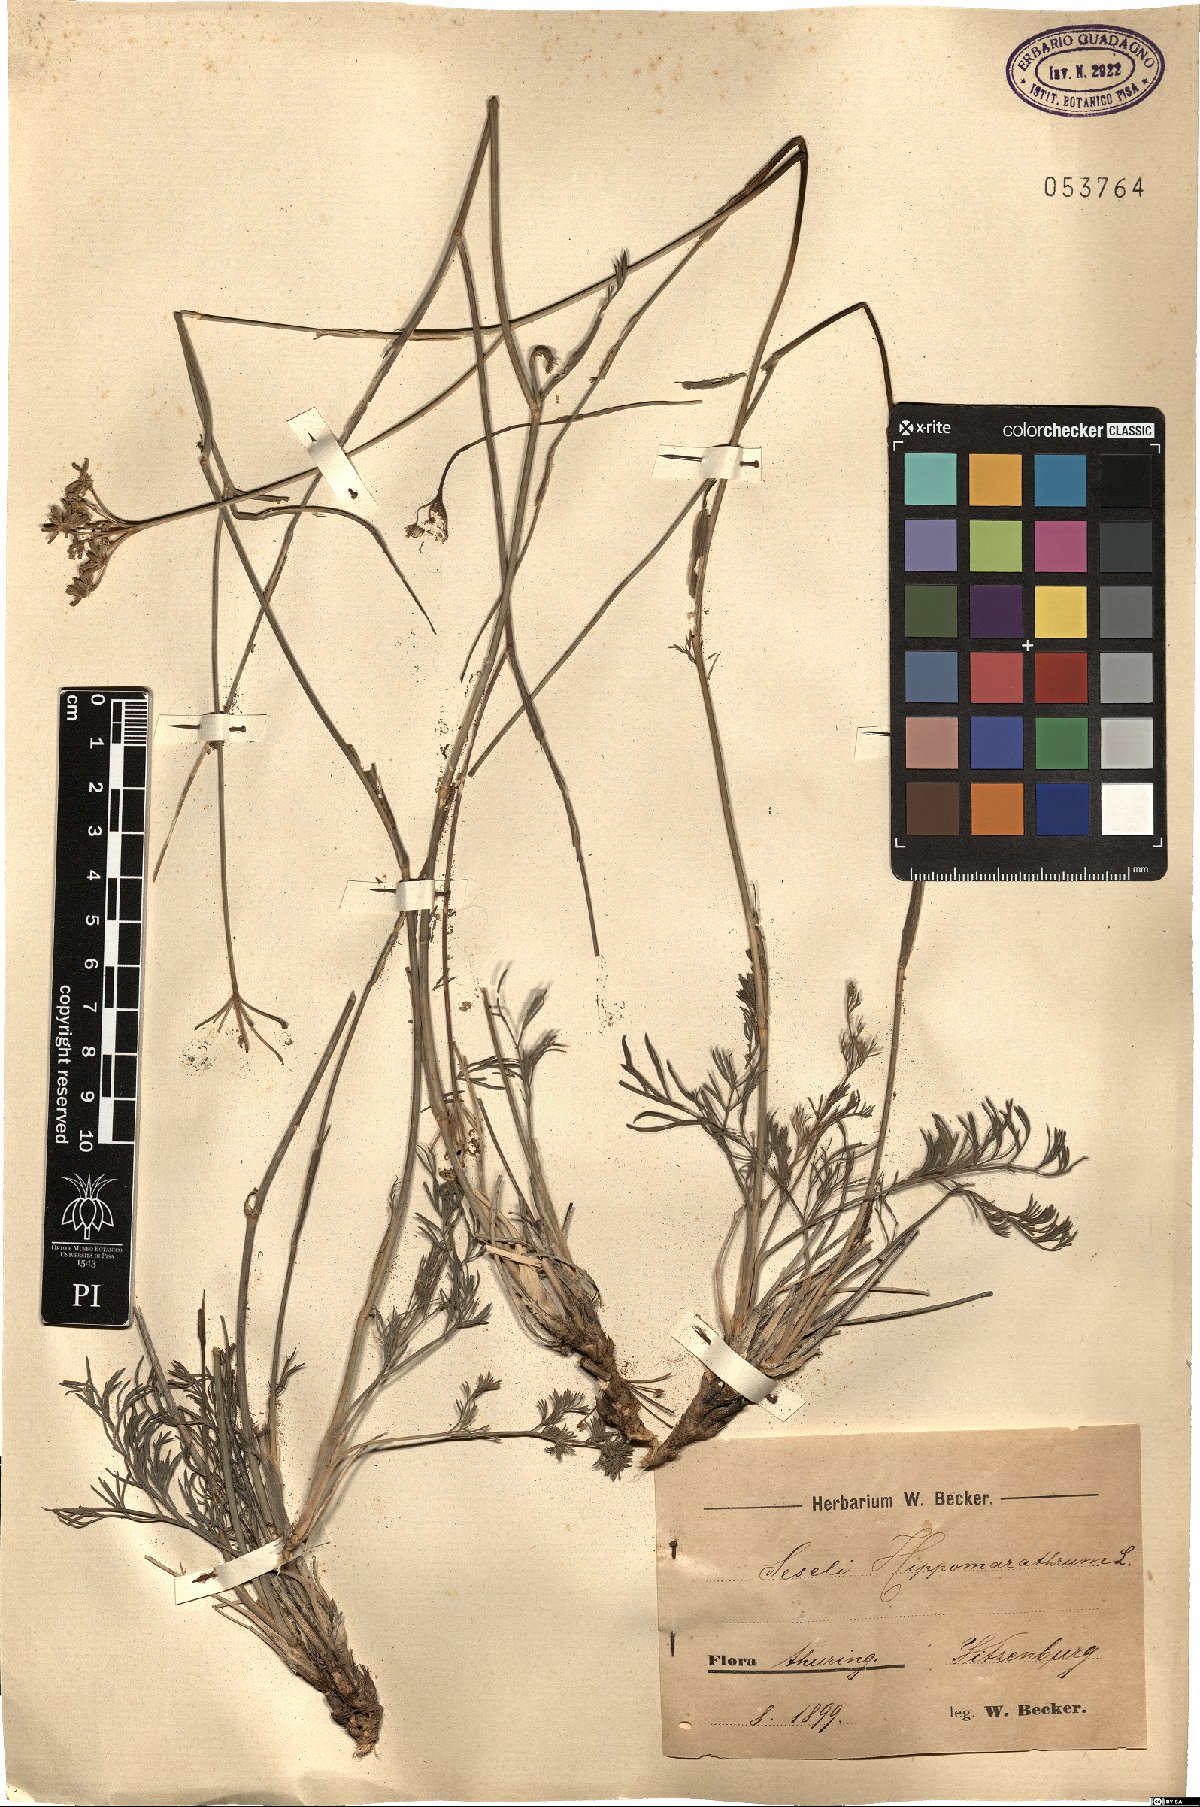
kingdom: Plantae
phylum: Tracheophyta
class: Magnoliopsida
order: Apiales
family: Apiaceae
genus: Hippomarathrum
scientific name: Hippomarathrum vulgare
